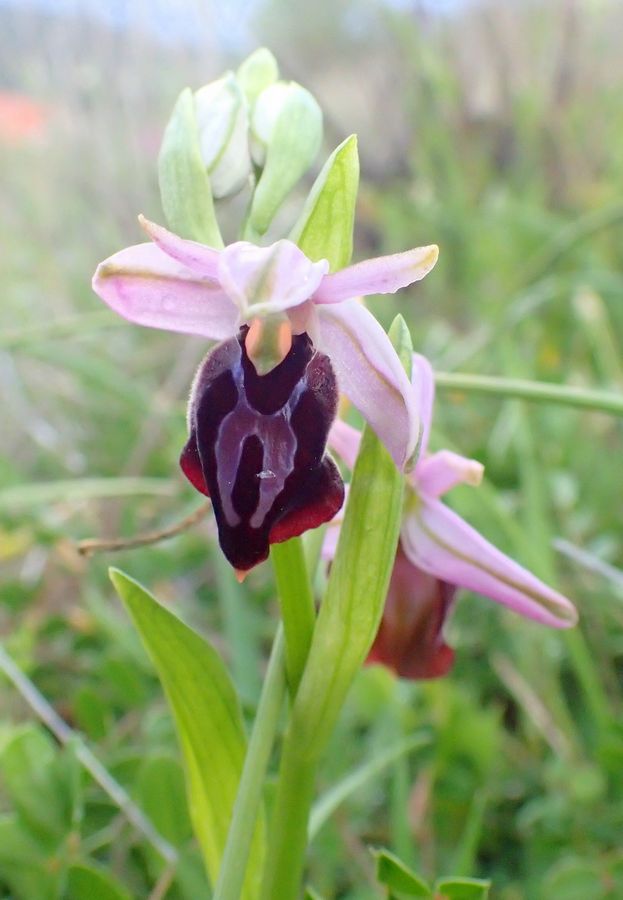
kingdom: Plantae
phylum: Tracheophyta
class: Liliopsida
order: Asparagales
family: Orchidaceae
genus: Ophrys
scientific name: Ophrys sphegodes
